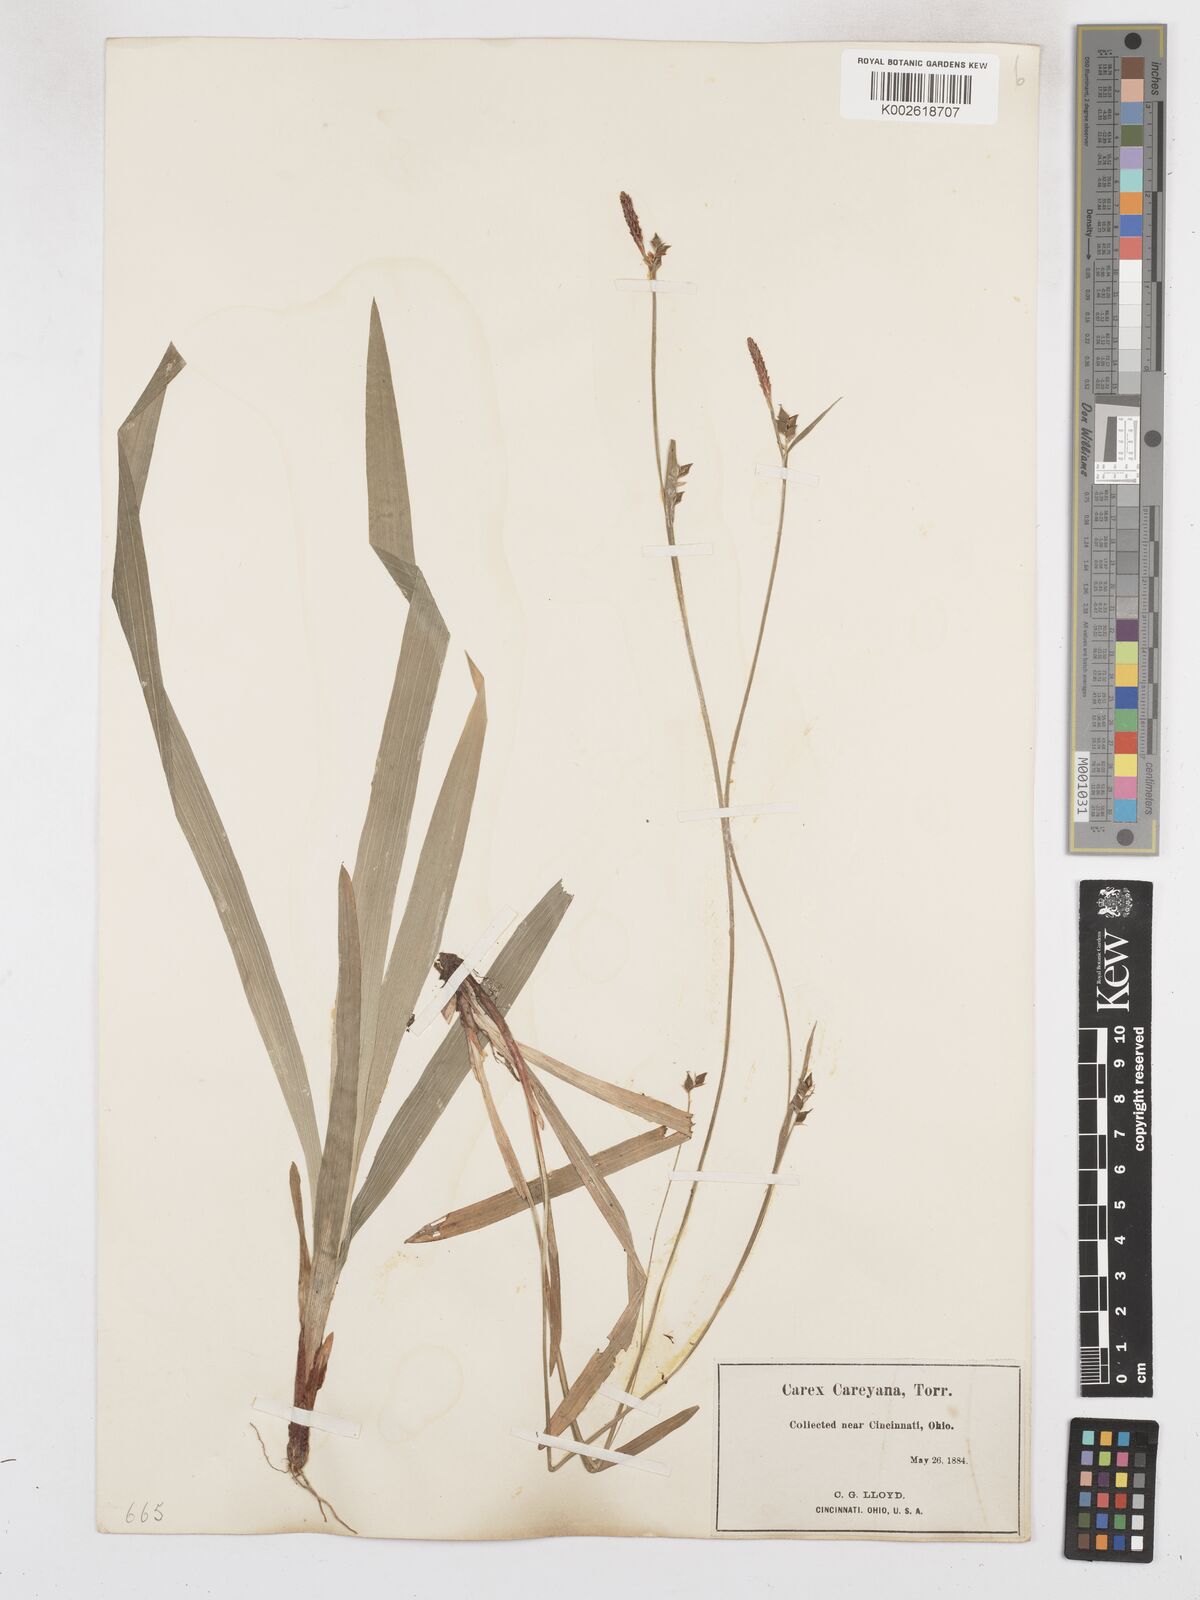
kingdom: Plantae
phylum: Tracheophyta
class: Liliopsida
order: Poales
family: Cyperaceae
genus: Carex
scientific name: Carex careyana
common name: Carey's sedge
